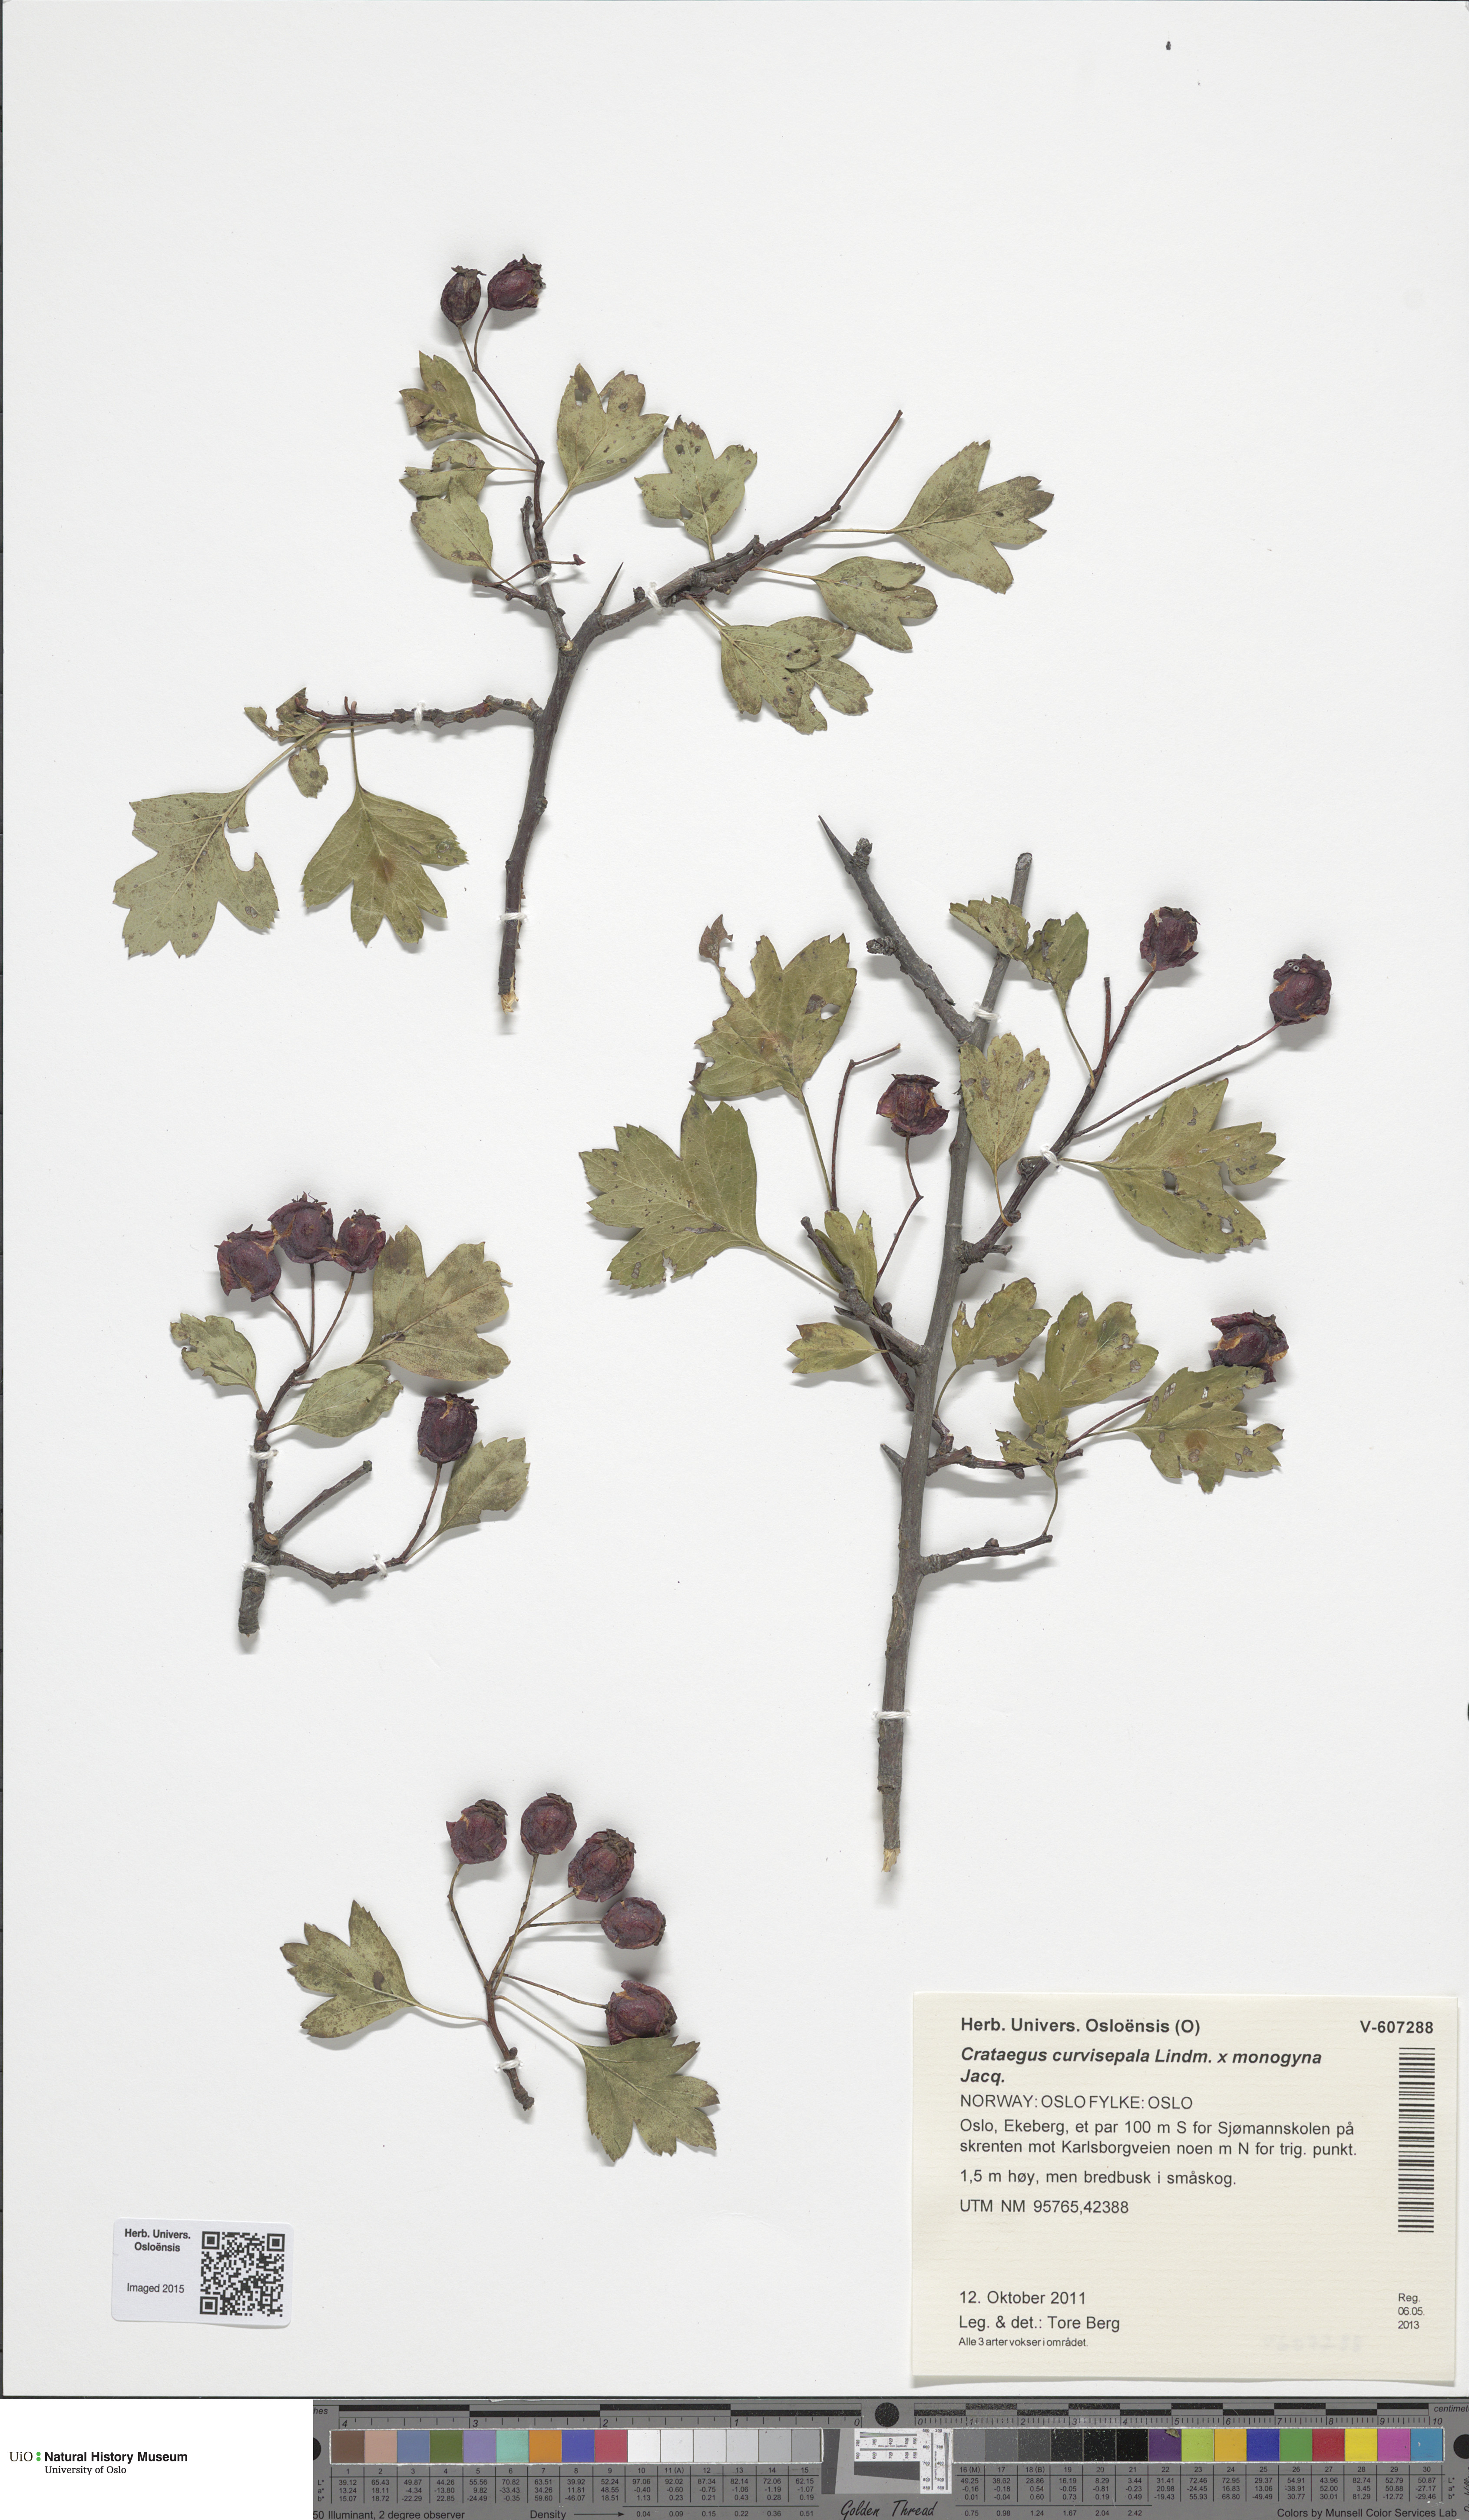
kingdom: Plantae
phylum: Tracheophyta
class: Magnoliopsida
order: Rosales
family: Rosaceae
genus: Crataegus
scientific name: Crataegus
